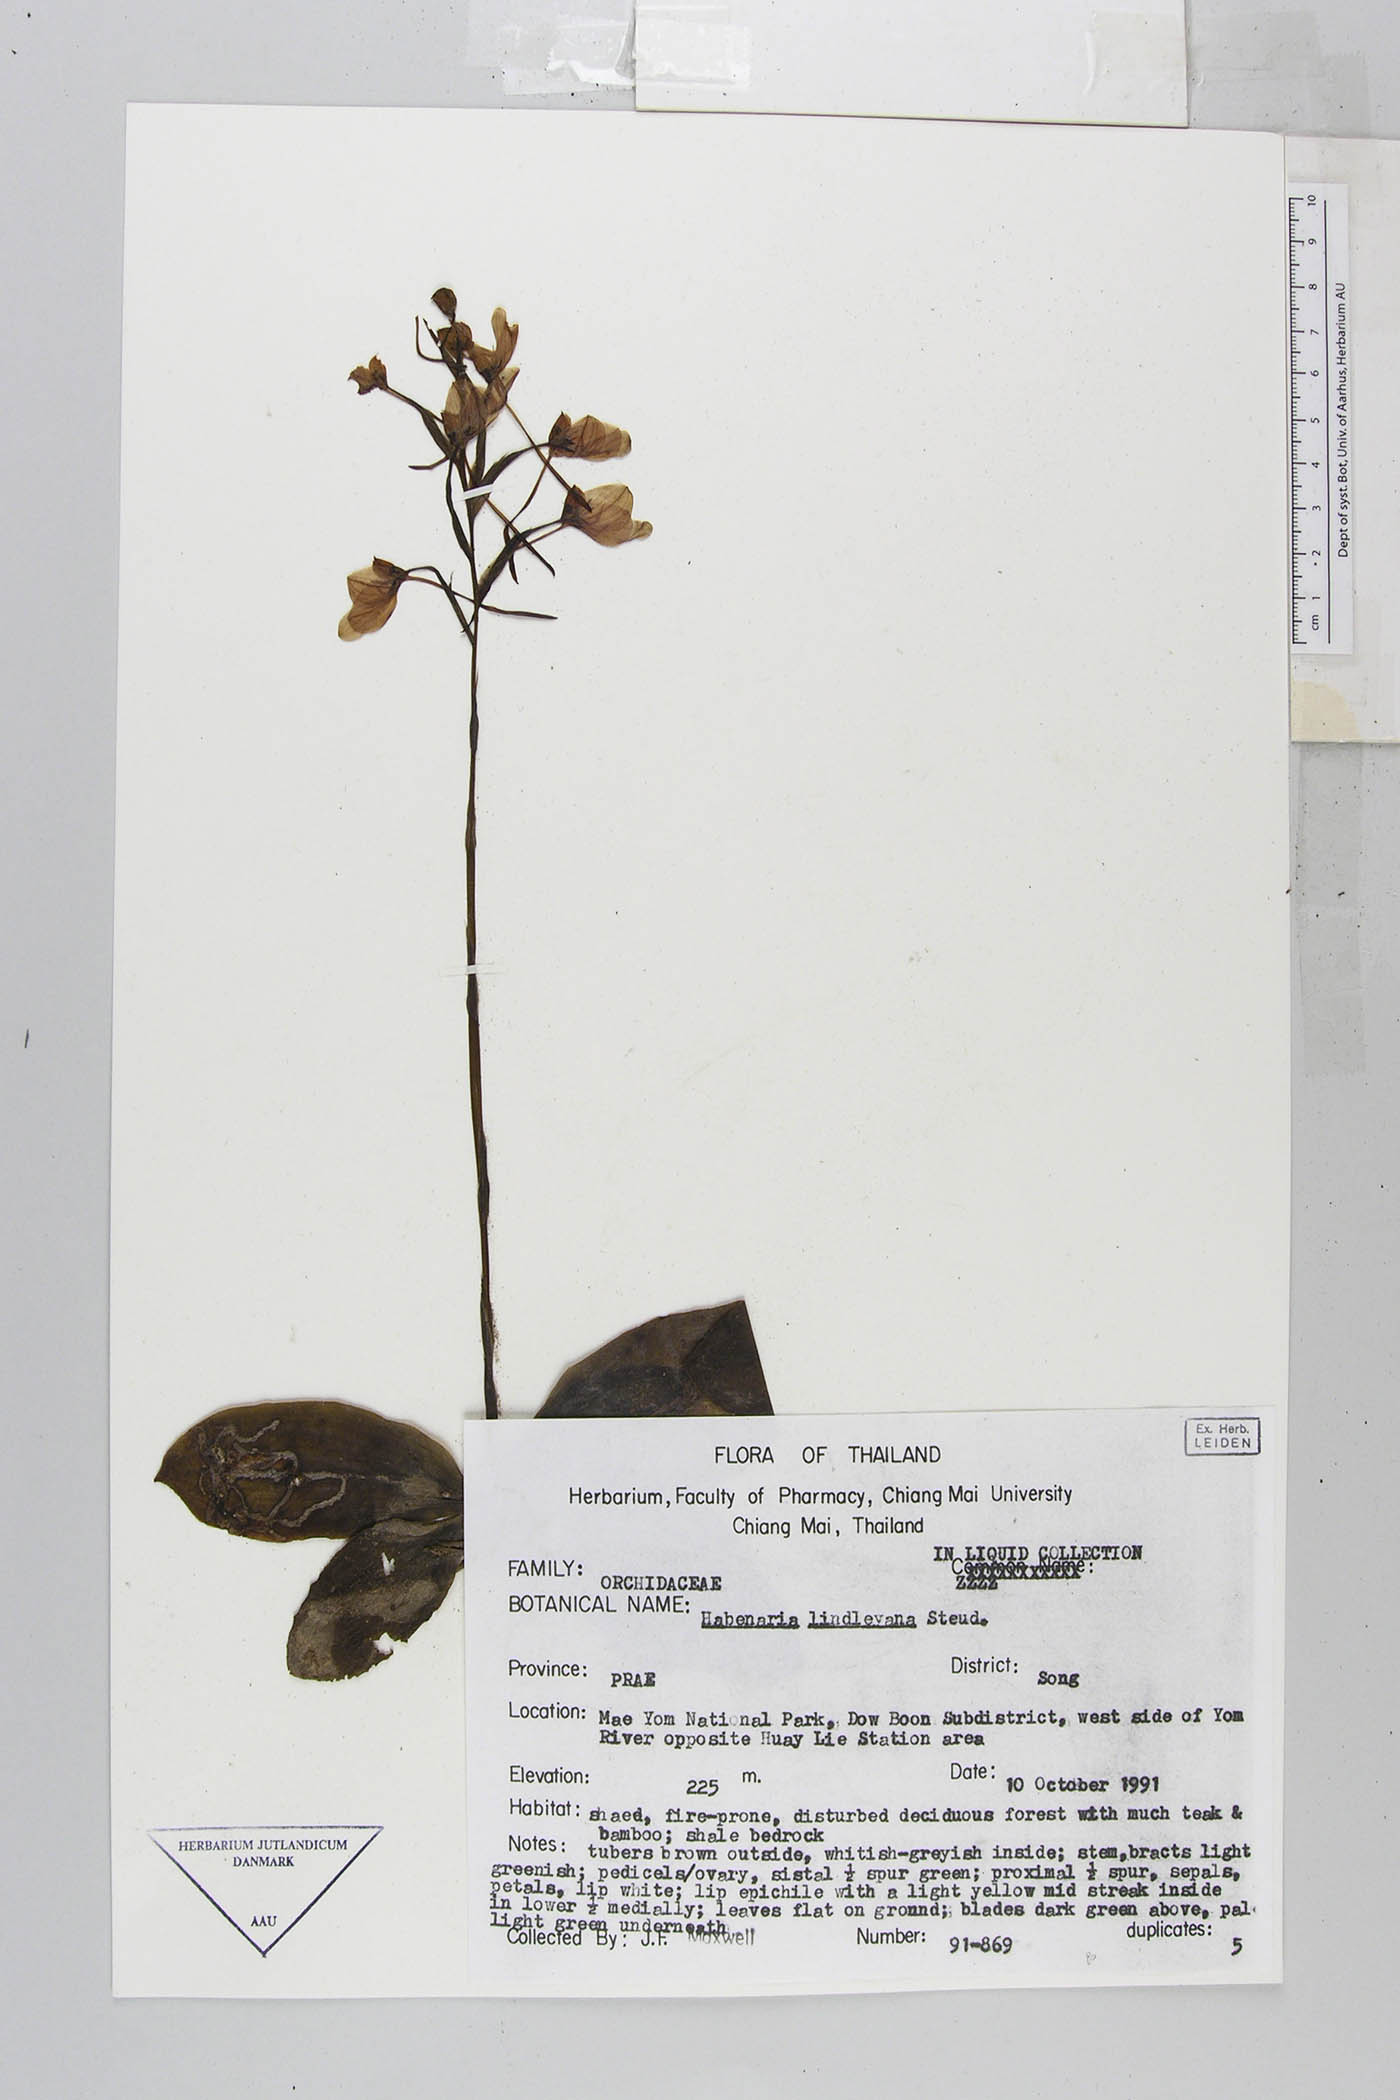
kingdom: Plantae
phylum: Tracheophyta
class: Liliopsida
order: Asparagales
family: Orchidaceae
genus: Habenaria
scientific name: Habenaria lindleyana
